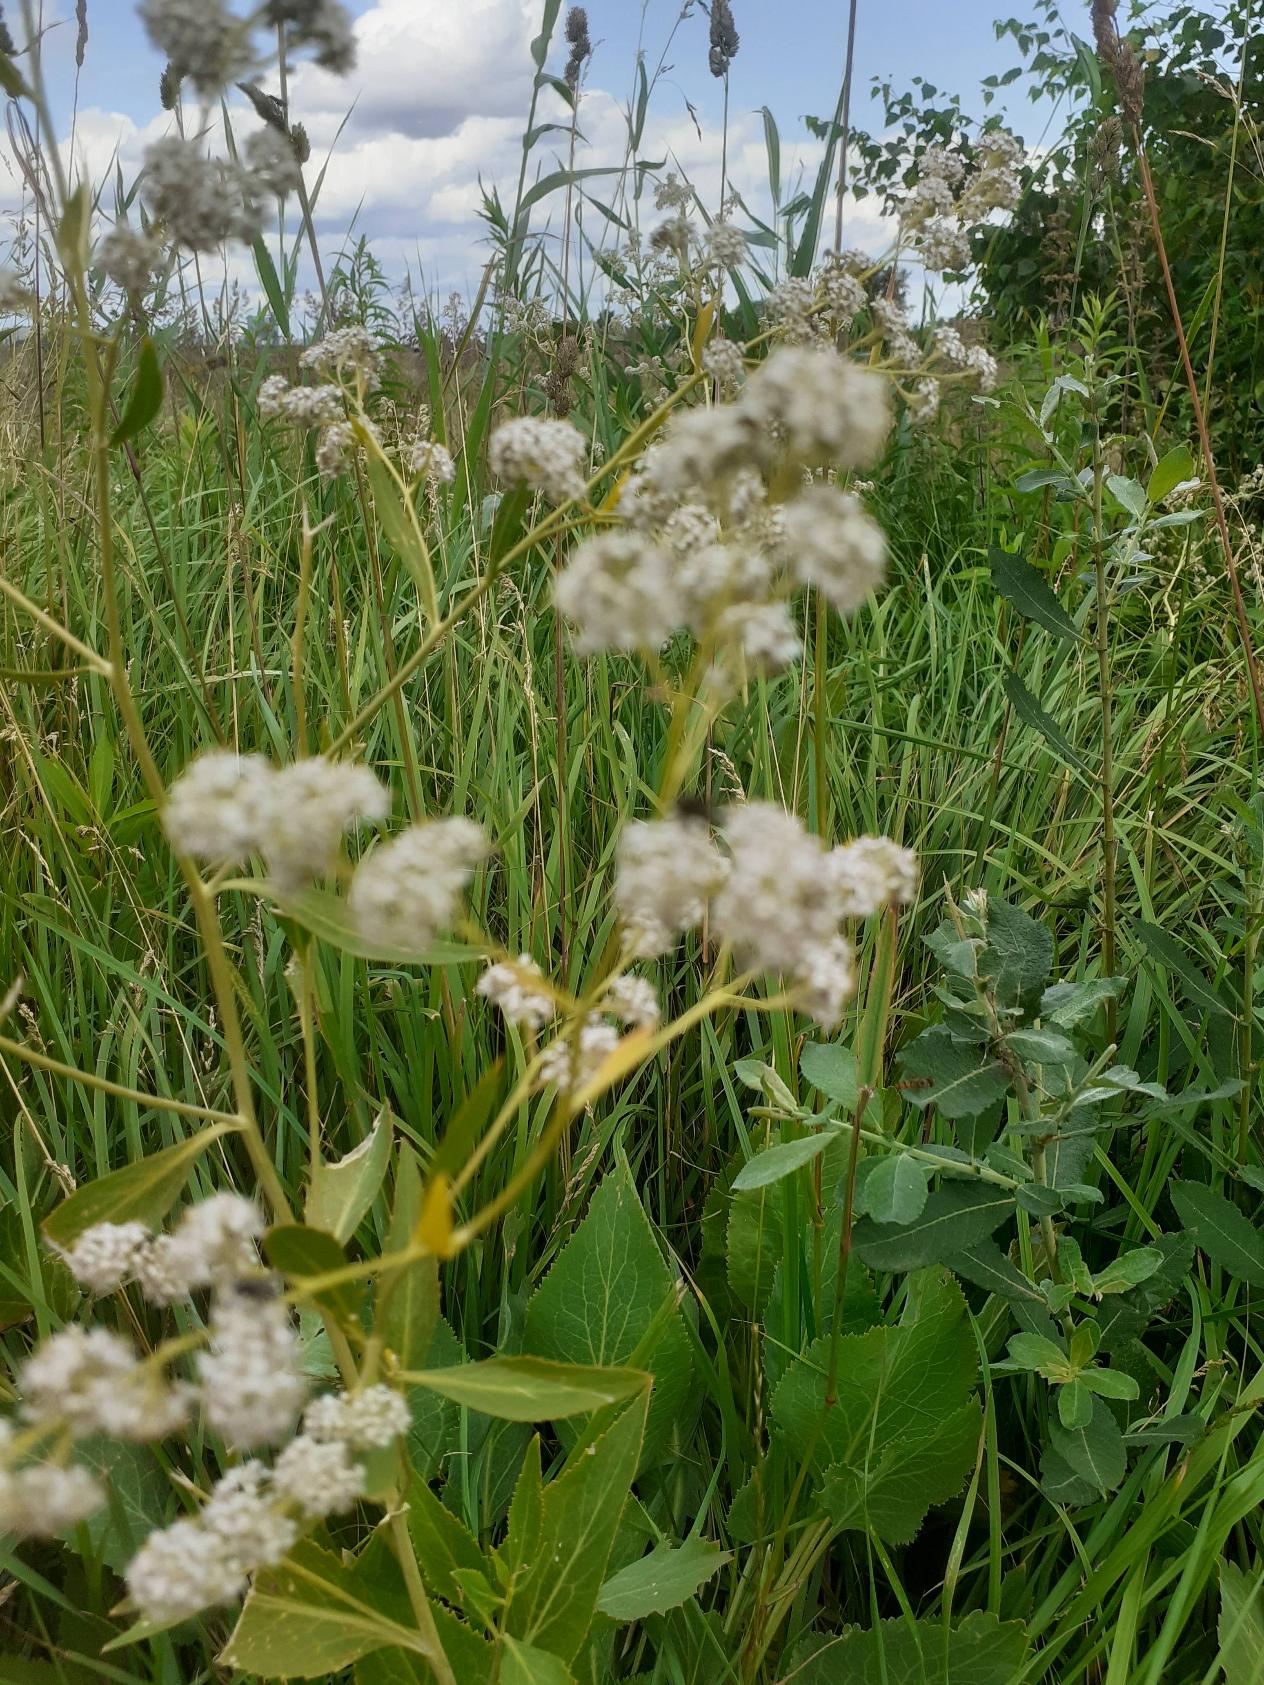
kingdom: Plantae
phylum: Tracheophyta
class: Magnoliopsida
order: Brassicales
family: Brassicaceae
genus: Lepidium
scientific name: Lepidium latifolium
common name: Strand-karse
